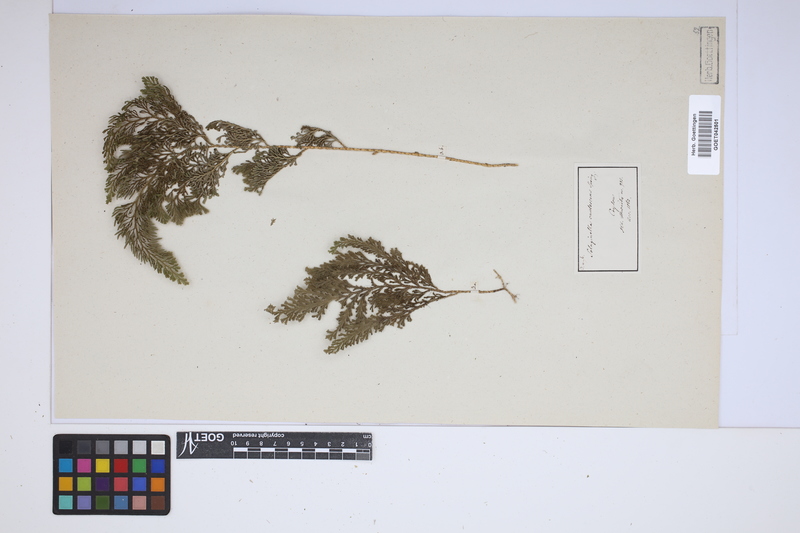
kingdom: Plantae
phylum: Tracheophyta
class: Lycopodiopsida
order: Selaginellales
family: Selaginellaceae
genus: Selaginella
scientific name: Selaginella involvens
